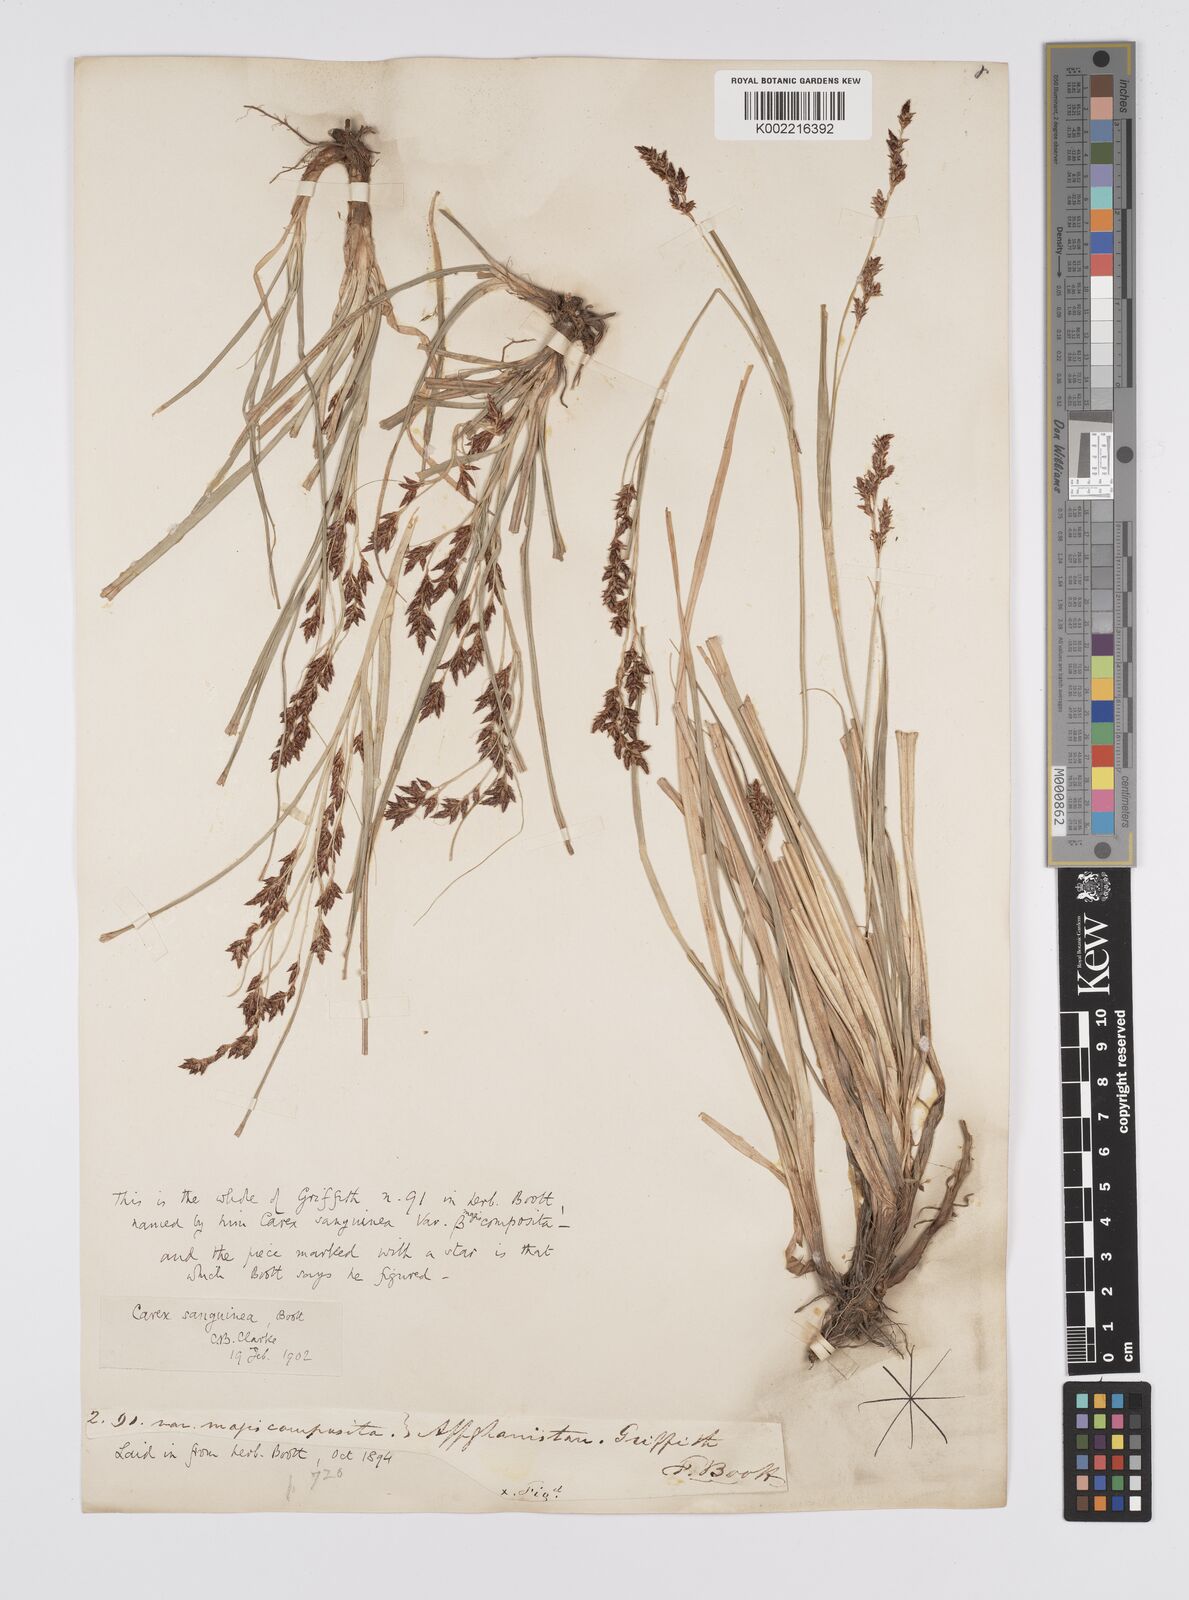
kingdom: Plantae
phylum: Tracheophyta
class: Liliopsida
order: Poales
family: Cyperaceae
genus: Carex
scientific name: Carex sanguinea
